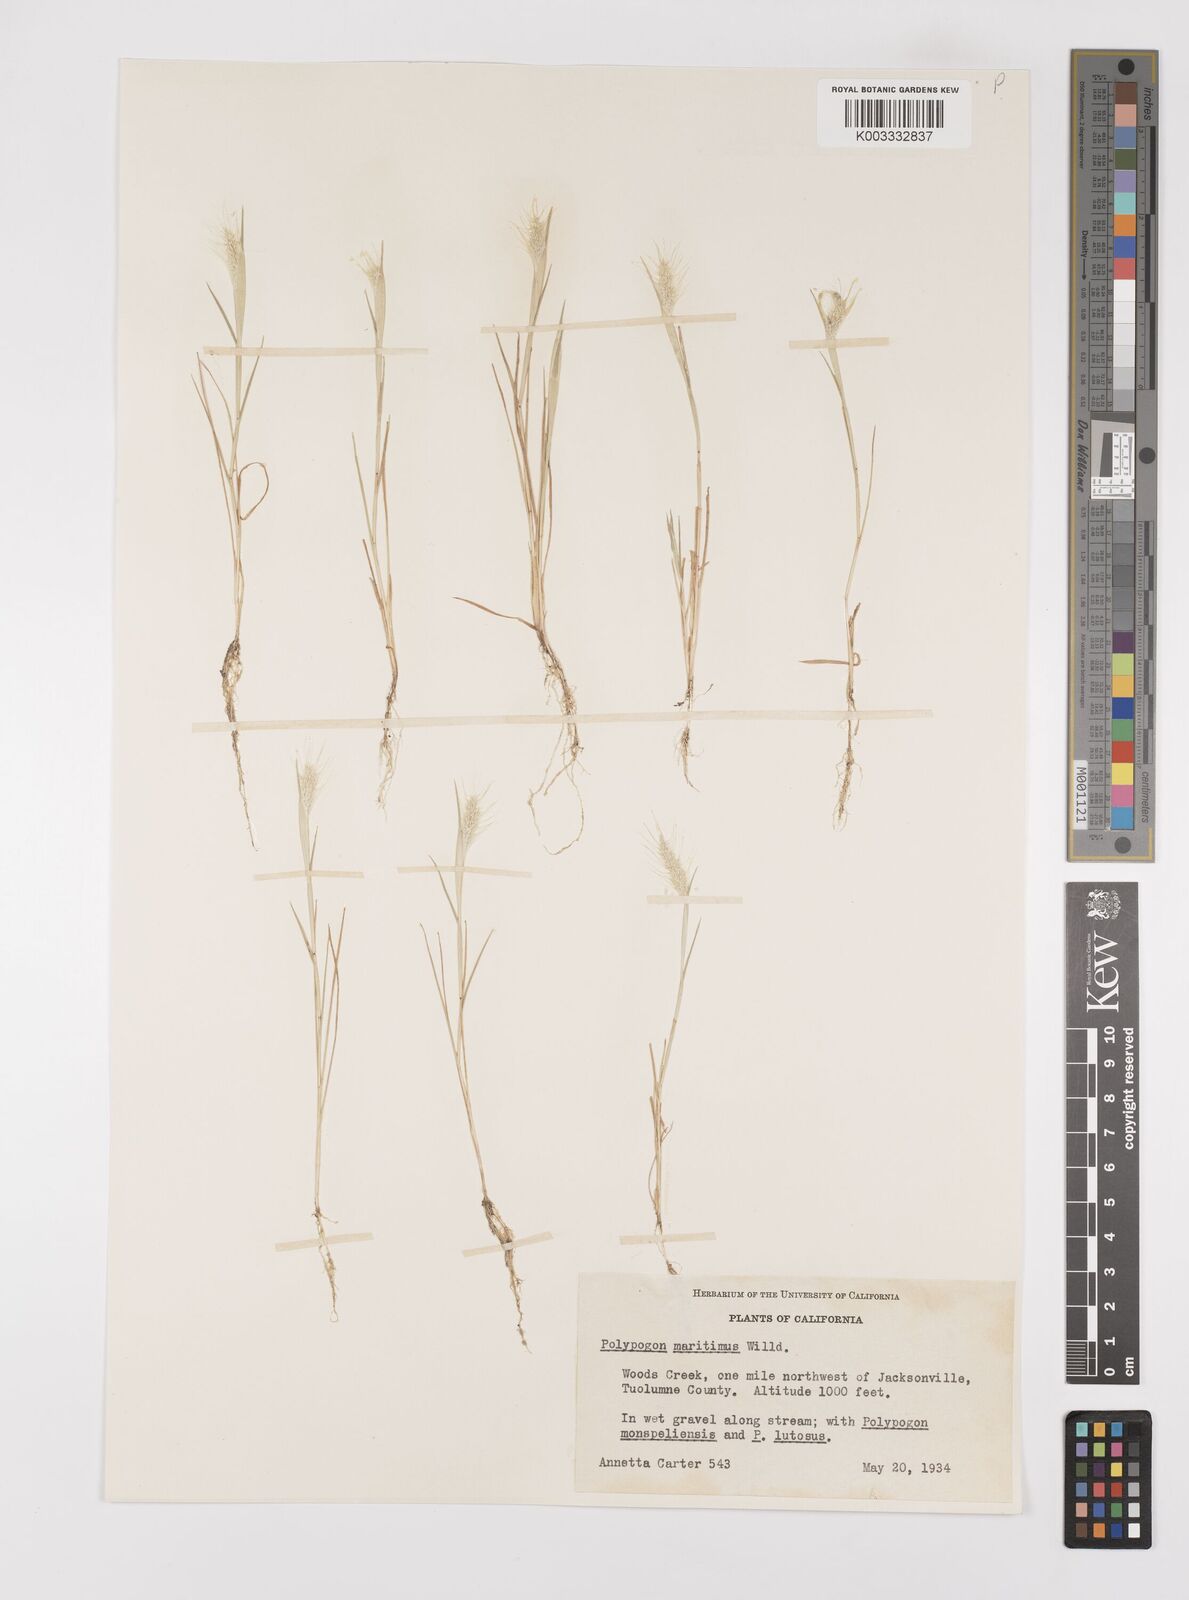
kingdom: Plantae
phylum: Tracheophyta
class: Liliopsida
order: Poales
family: Poaceae
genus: Polypogon
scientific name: Polypogon maritimus
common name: Mediterranean rabbitsfoot grass
